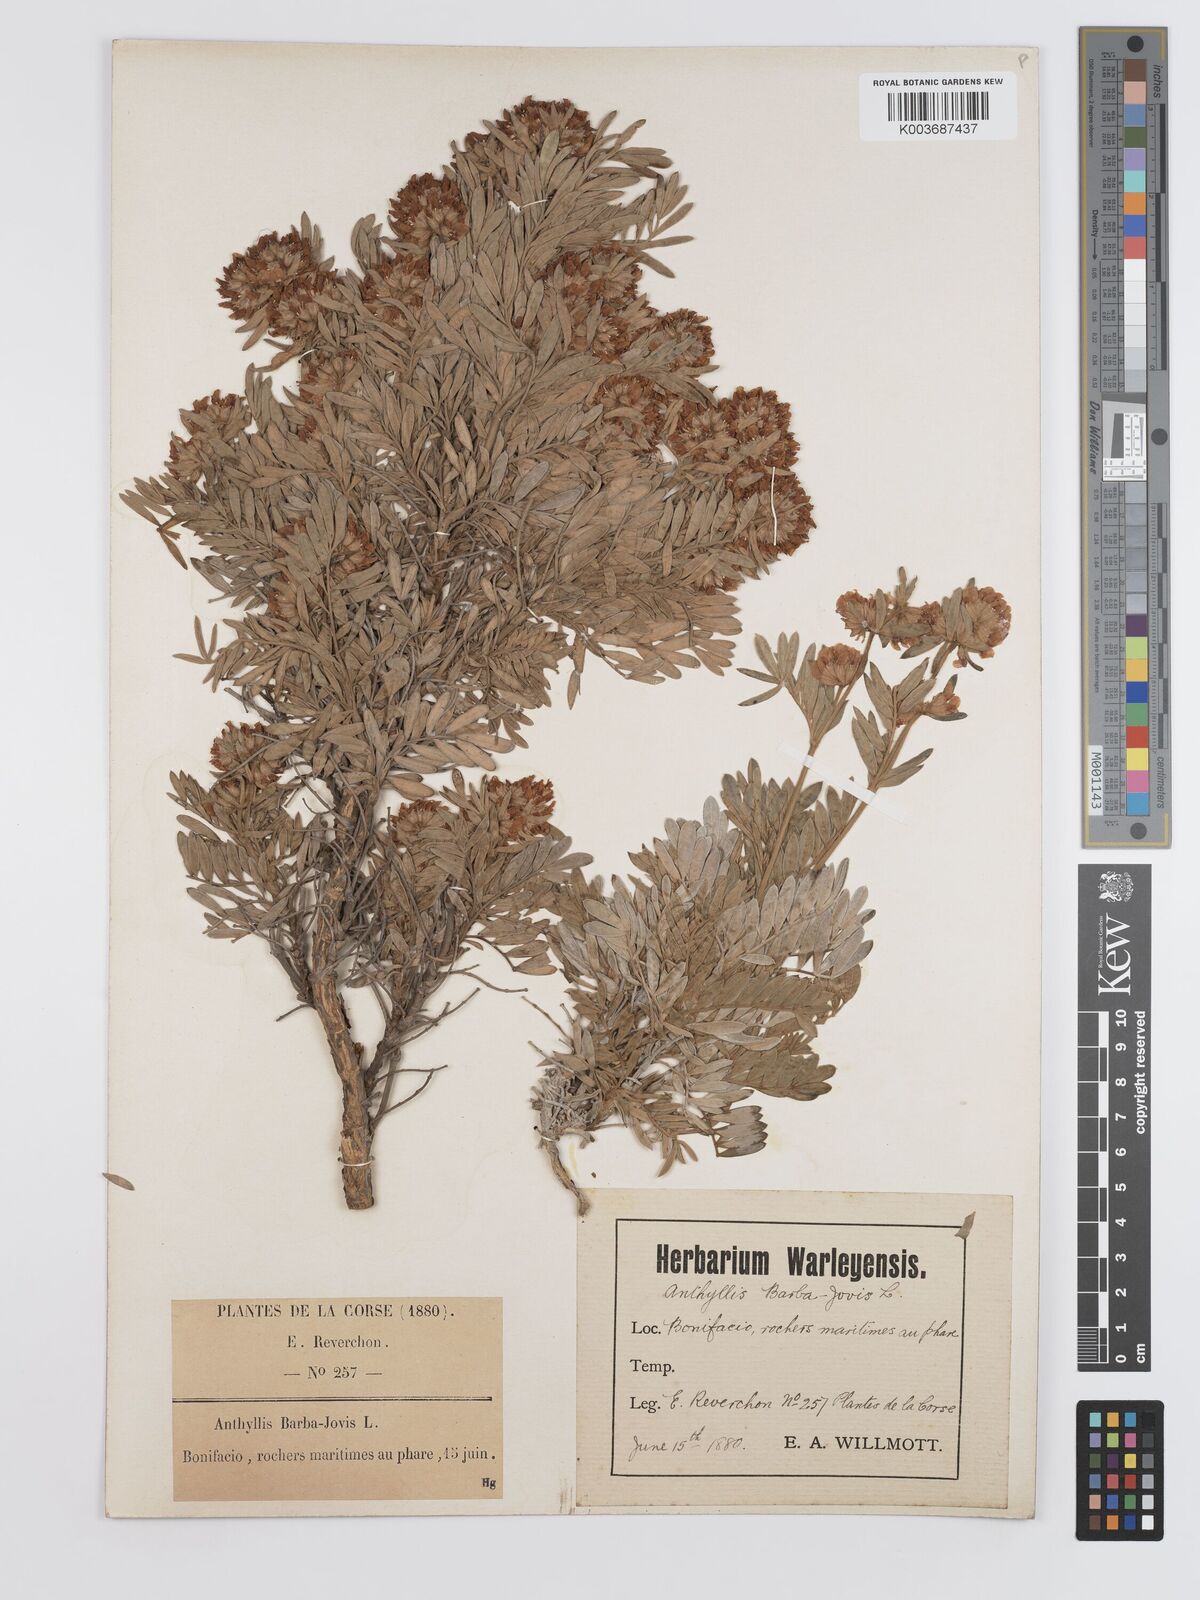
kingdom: Plantae
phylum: Tracheophyta
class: Magnoliopsida
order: Fabales
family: Fabaceae
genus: Anthyllis
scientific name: Anthyllis barba-jovis
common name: Jupiter's-beard
